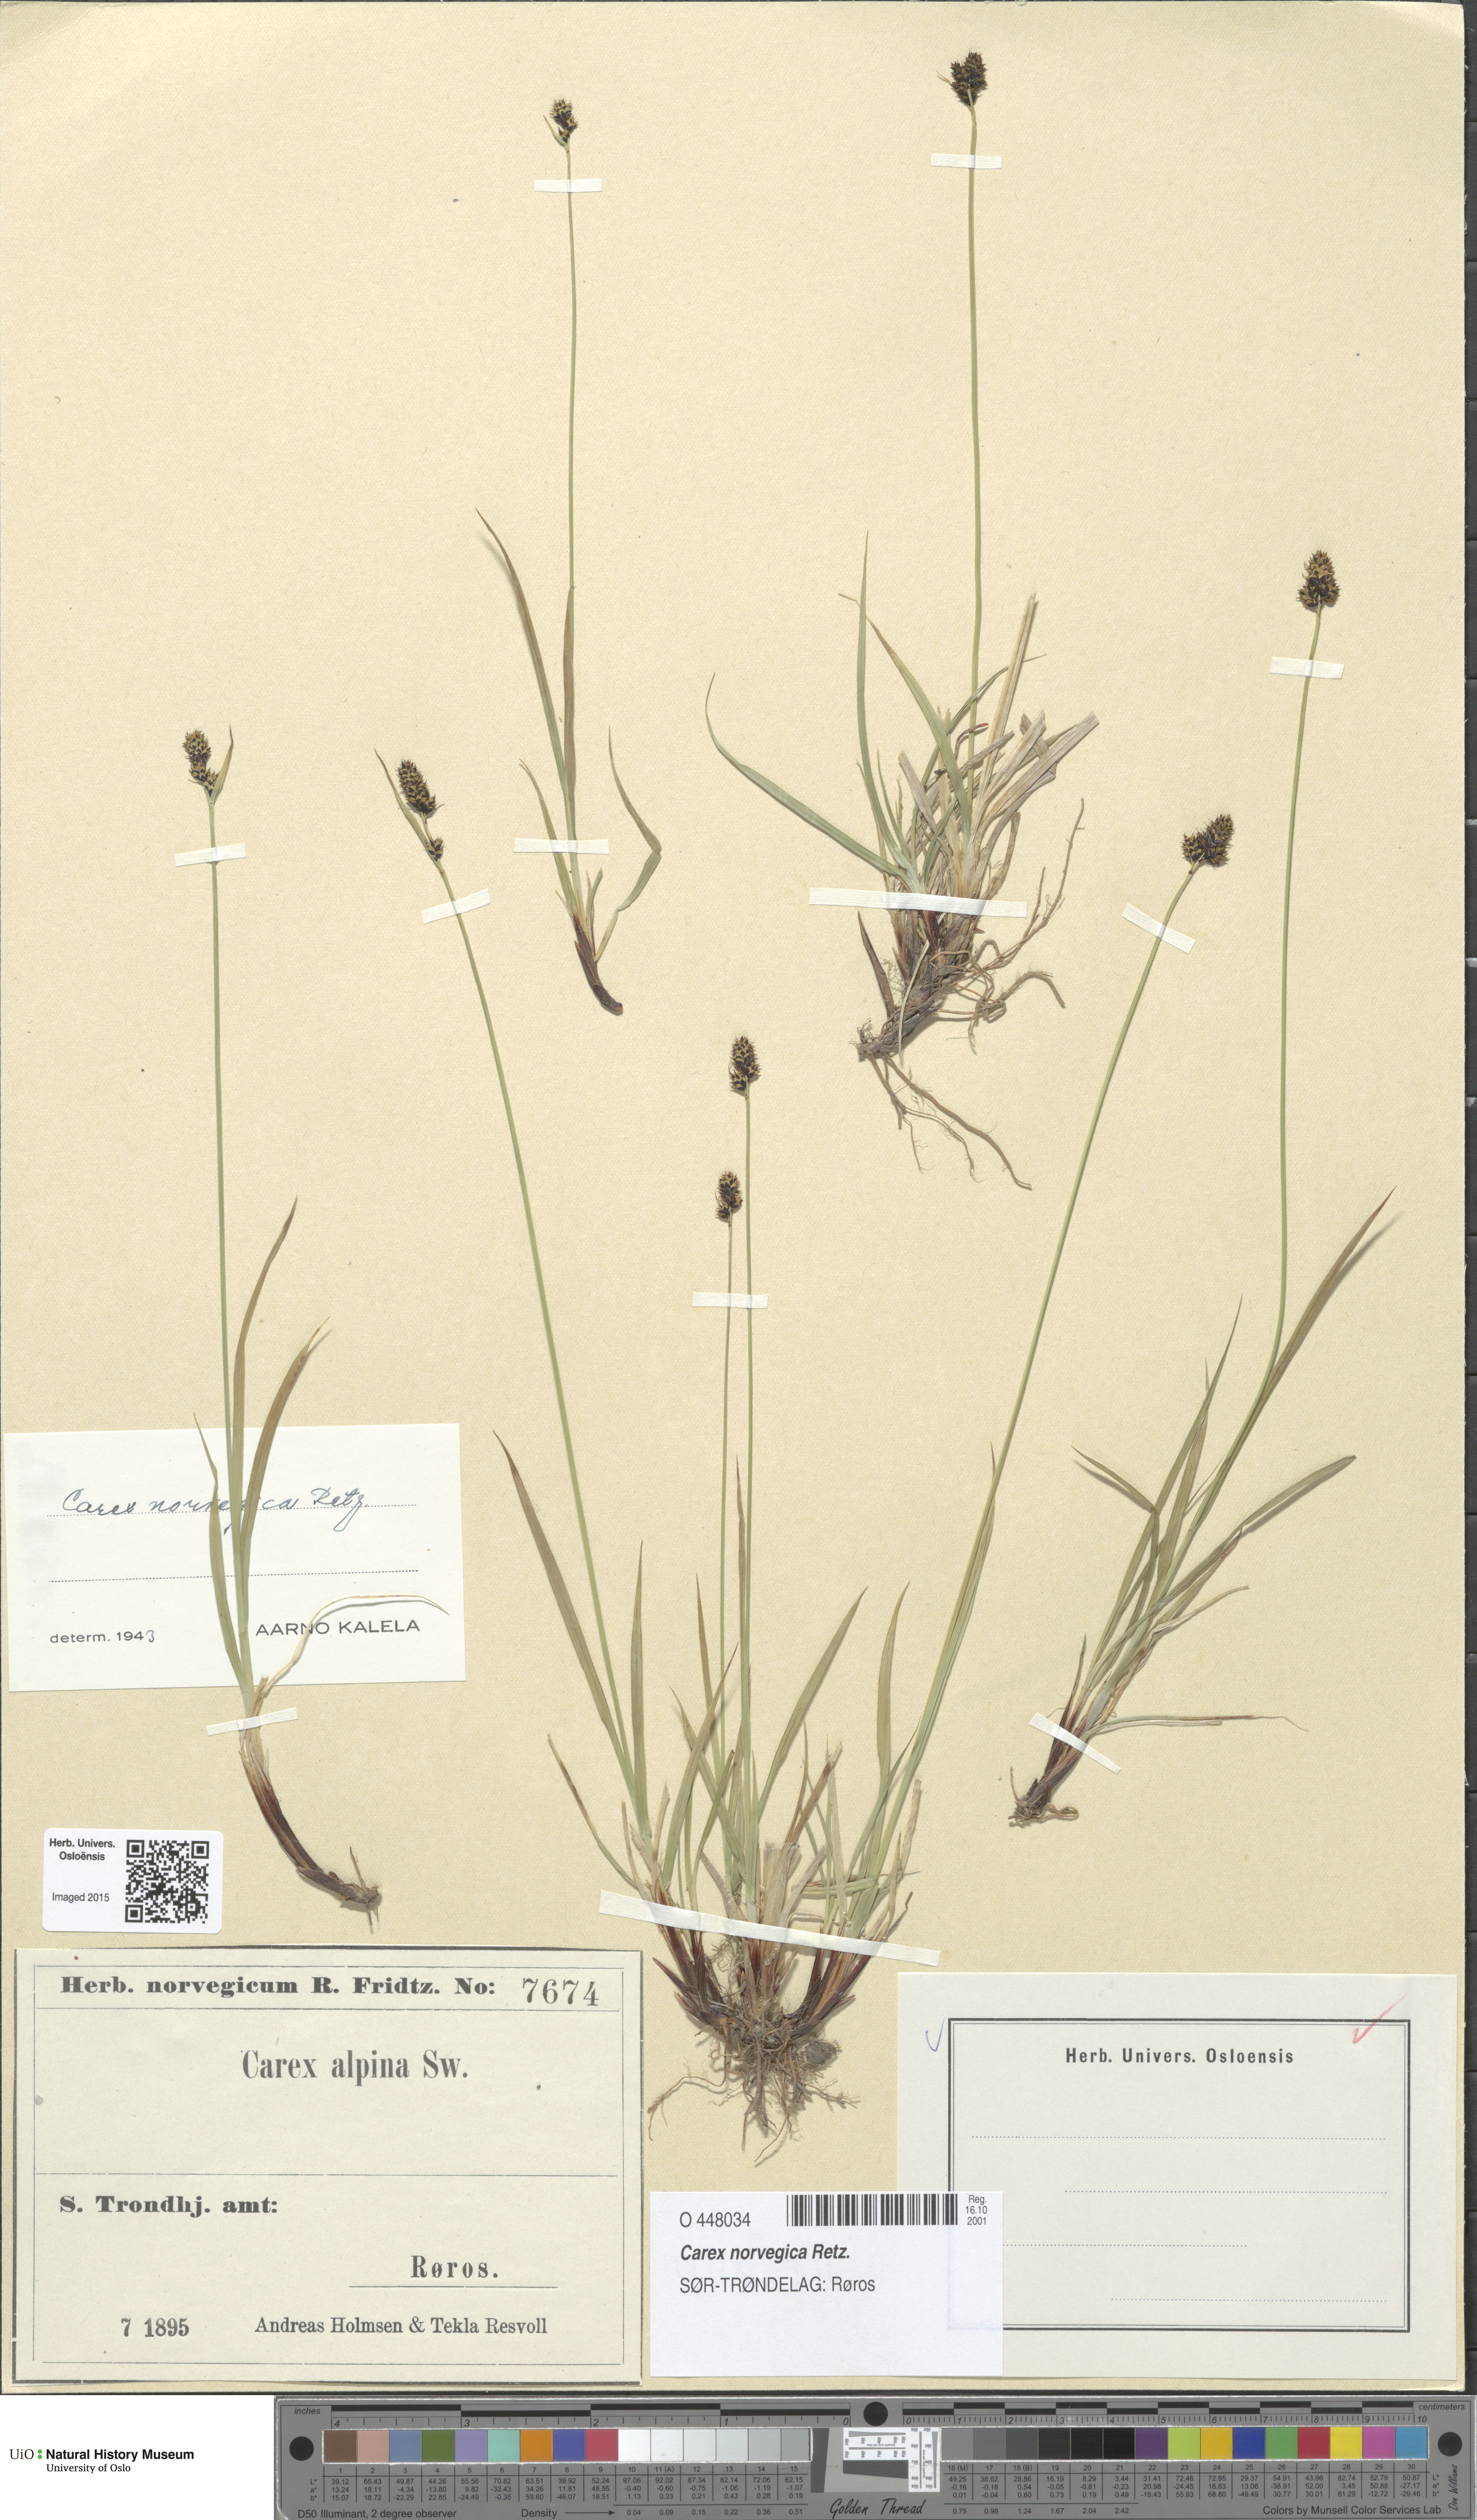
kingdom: Plantae
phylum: Tracheophyta
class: Liliopsida
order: Poales
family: Cyperaceae
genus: Carex
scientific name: Carex norvegica
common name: Close-headed alpine-sedge
